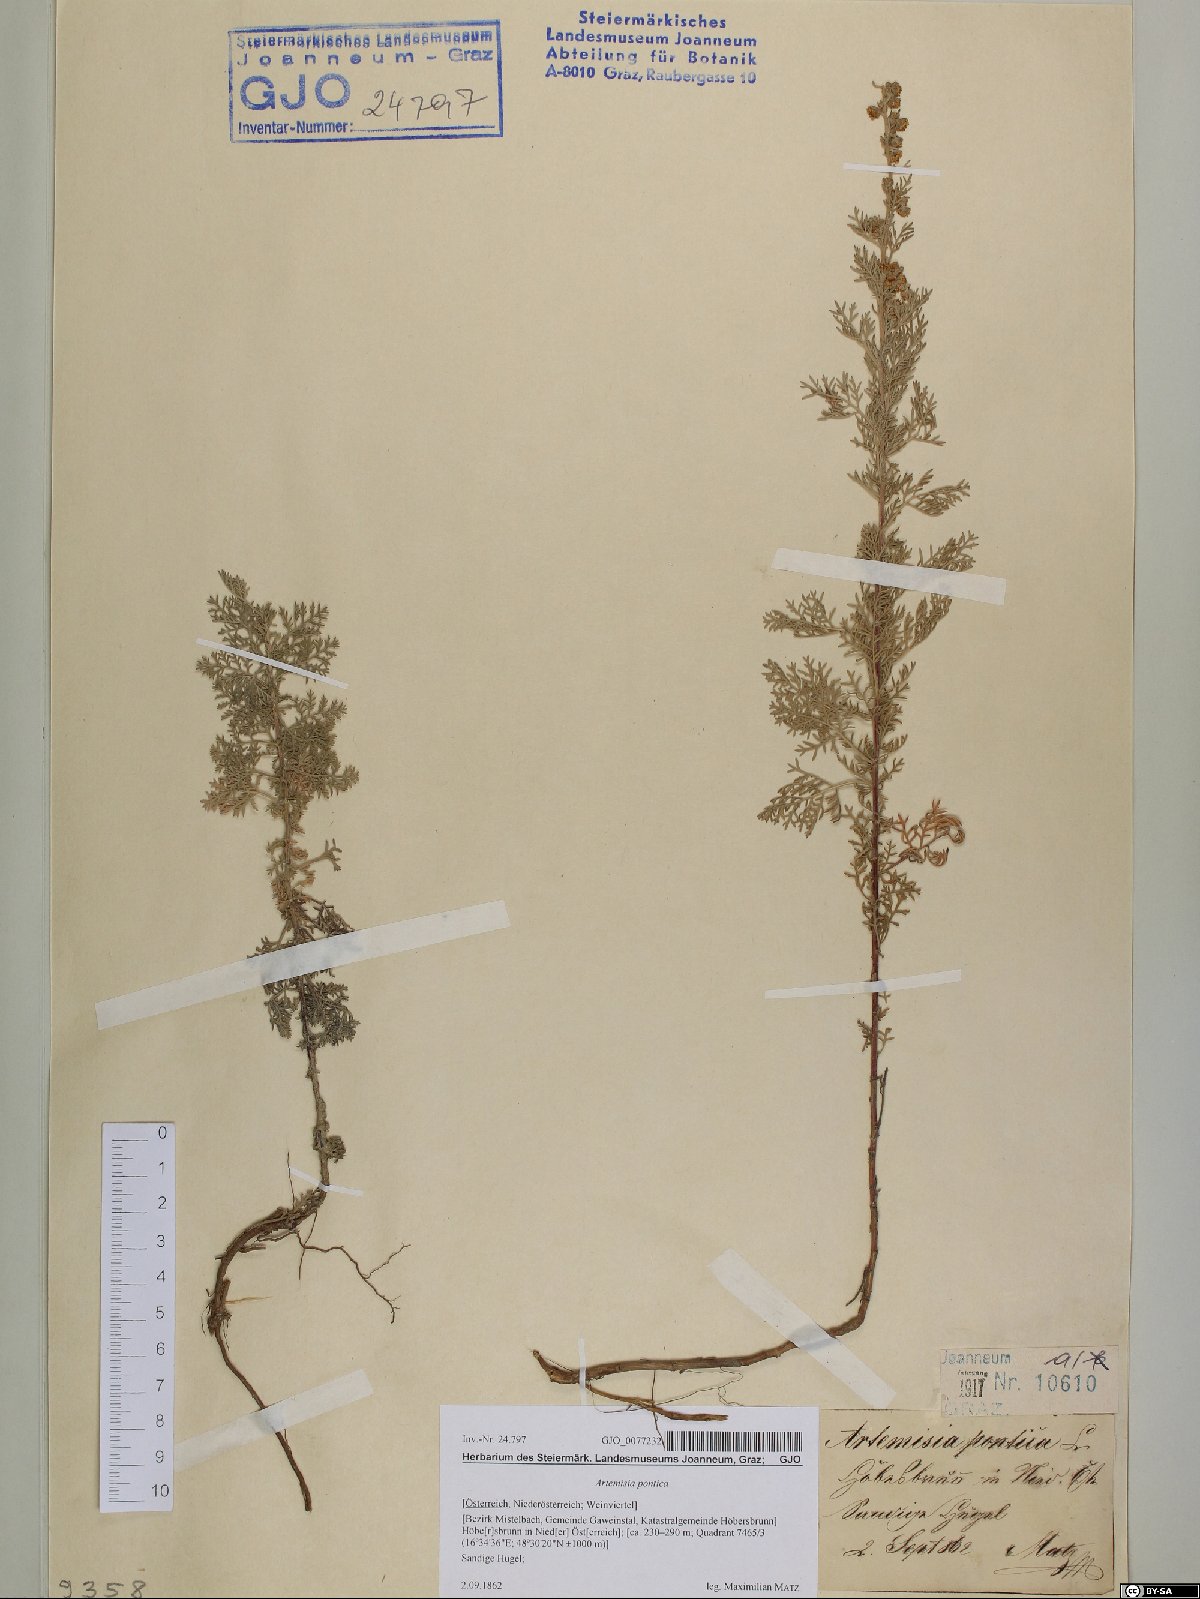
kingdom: Plantae
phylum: Tracheophyta
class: Magnoliopsida
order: Asterales
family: Asteraceae
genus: Artemisia
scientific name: Artemisia pontica
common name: Roman wormwood
